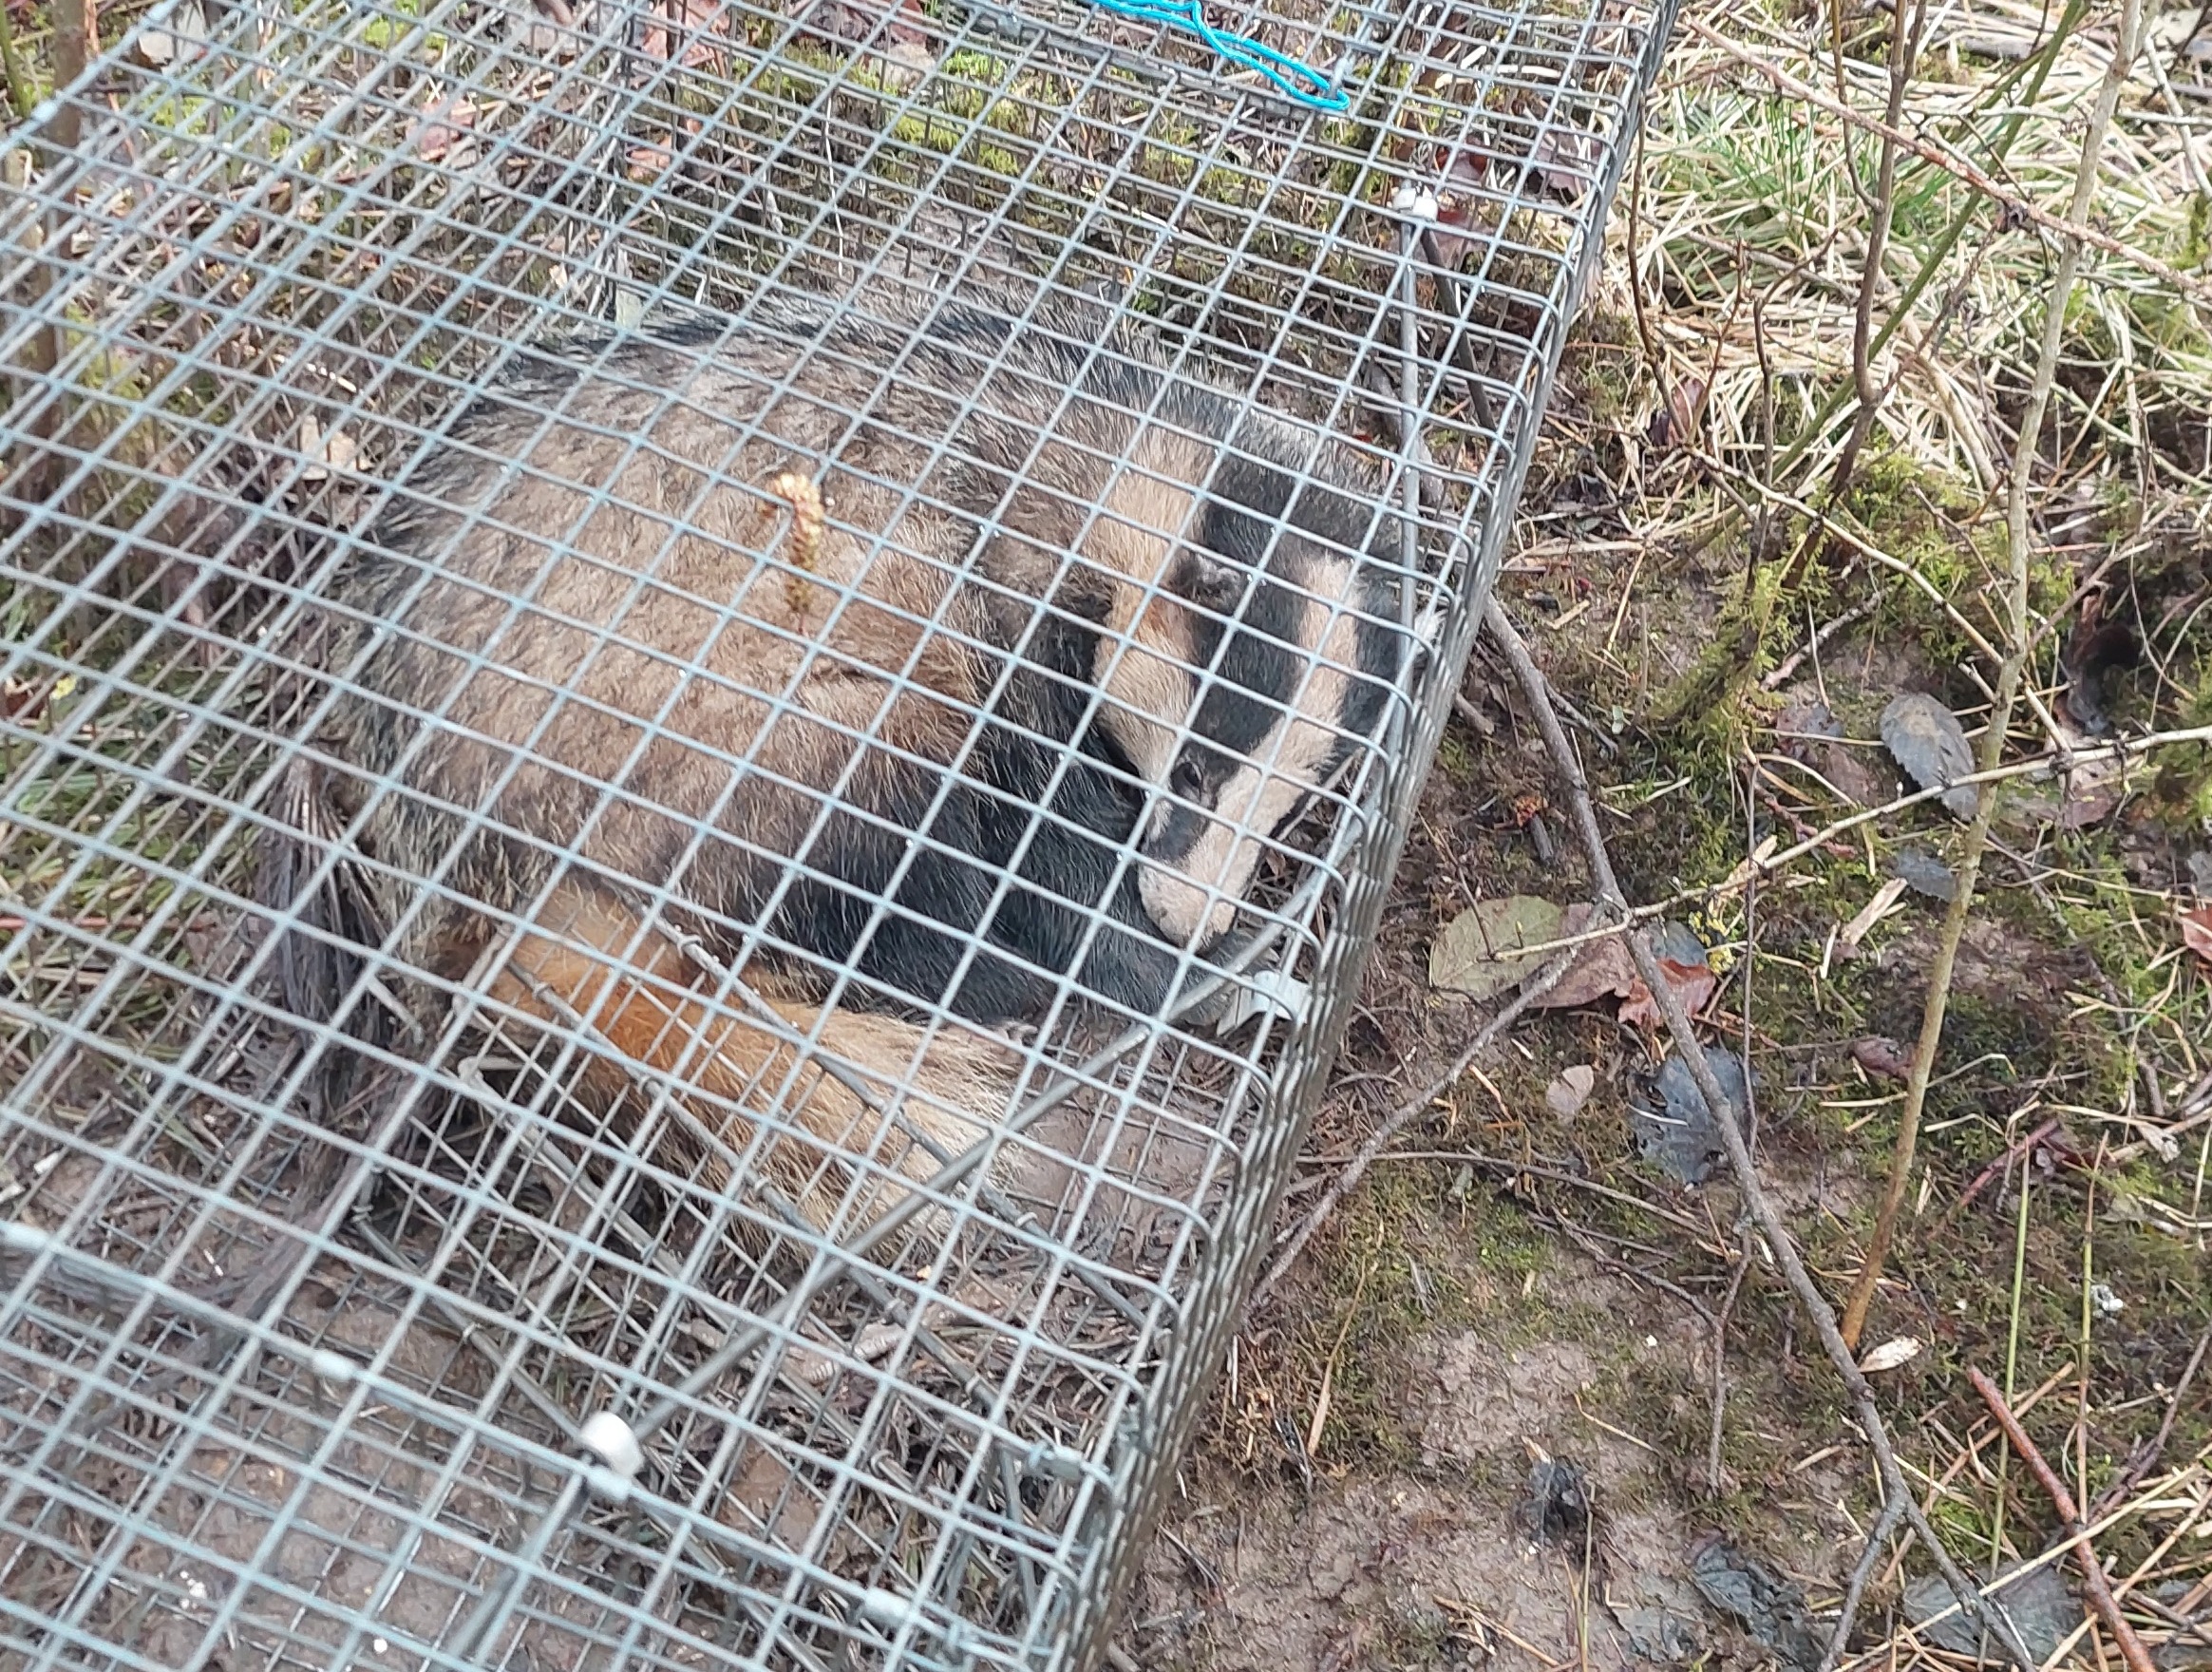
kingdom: Animalia
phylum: Chordata
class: Mammalia
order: Carnivora
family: Mustelidae
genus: Meles
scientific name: Meles meles
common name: Grævling
